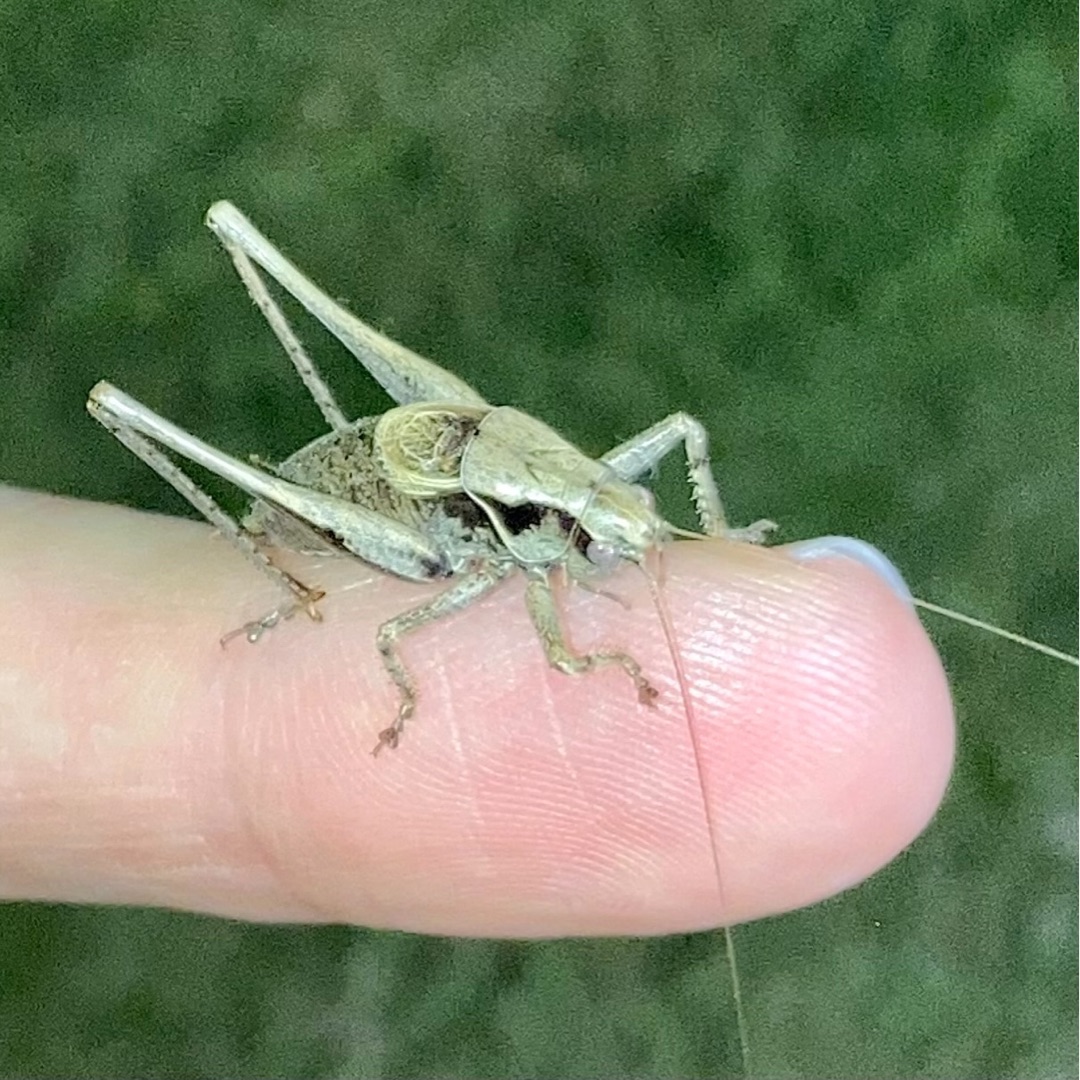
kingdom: Animalia
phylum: Arthropoda
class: Insecta
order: Orthoptera
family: Tettigoniidae
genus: Pholidoptera
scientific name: Pholidoptera griseoaptera
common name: Buskgræshoppe
